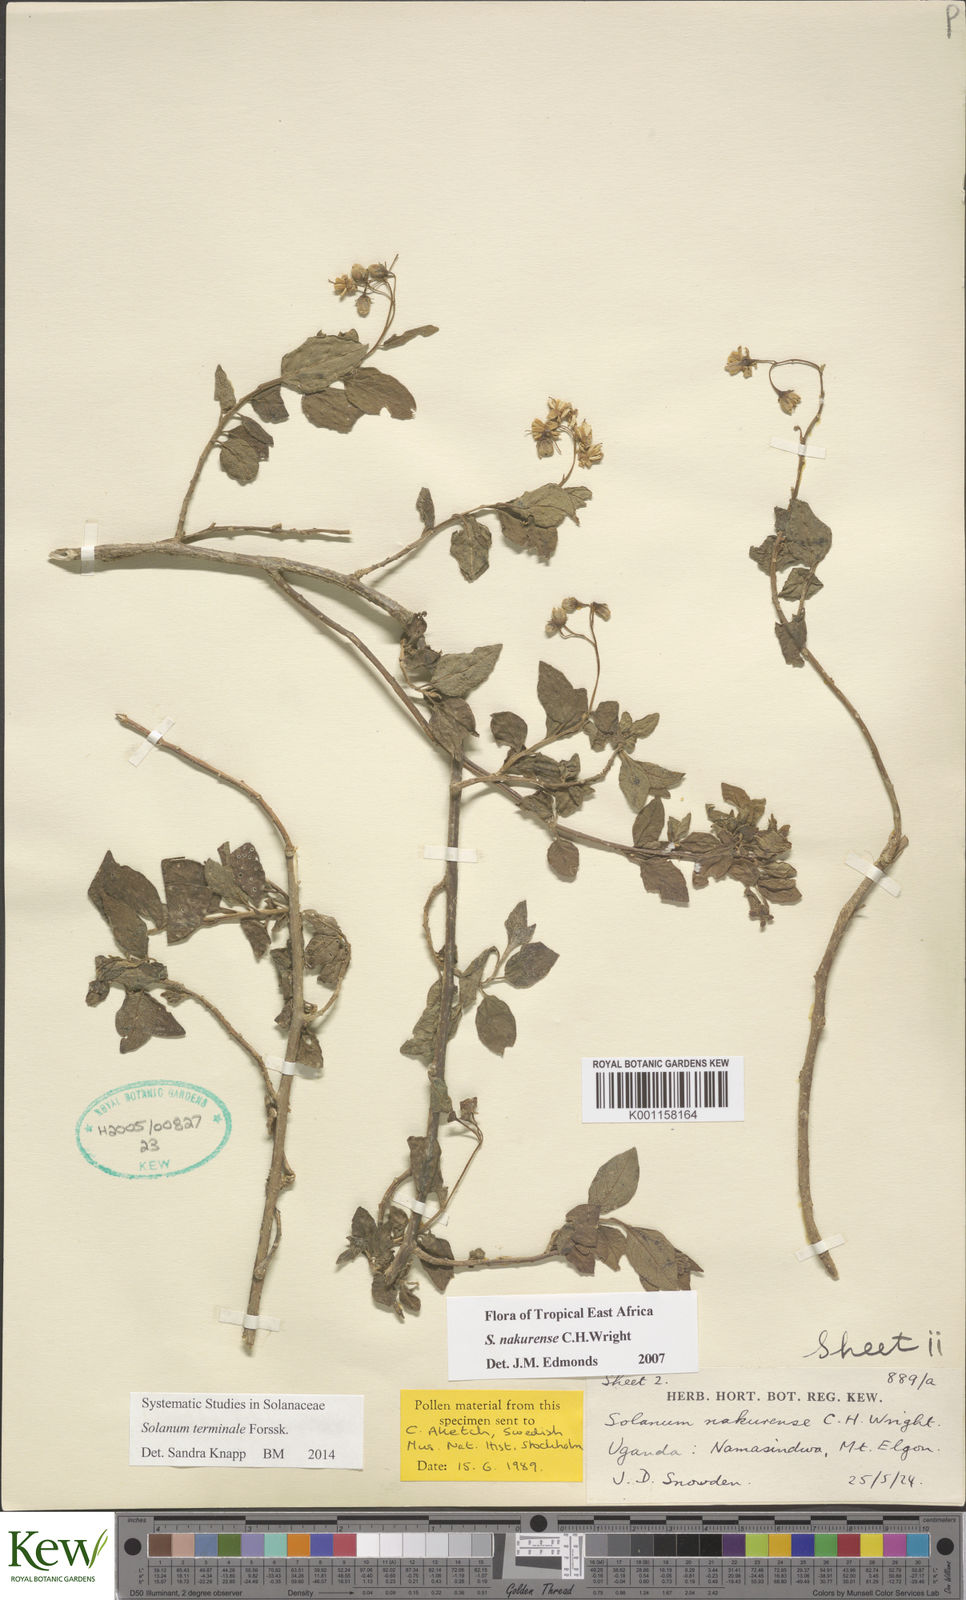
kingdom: Plantae
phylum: Tracheophyta
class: Magnoliopsida
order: Solanales
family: Solanaceae
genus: Solanum
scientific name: Solanum terminale
